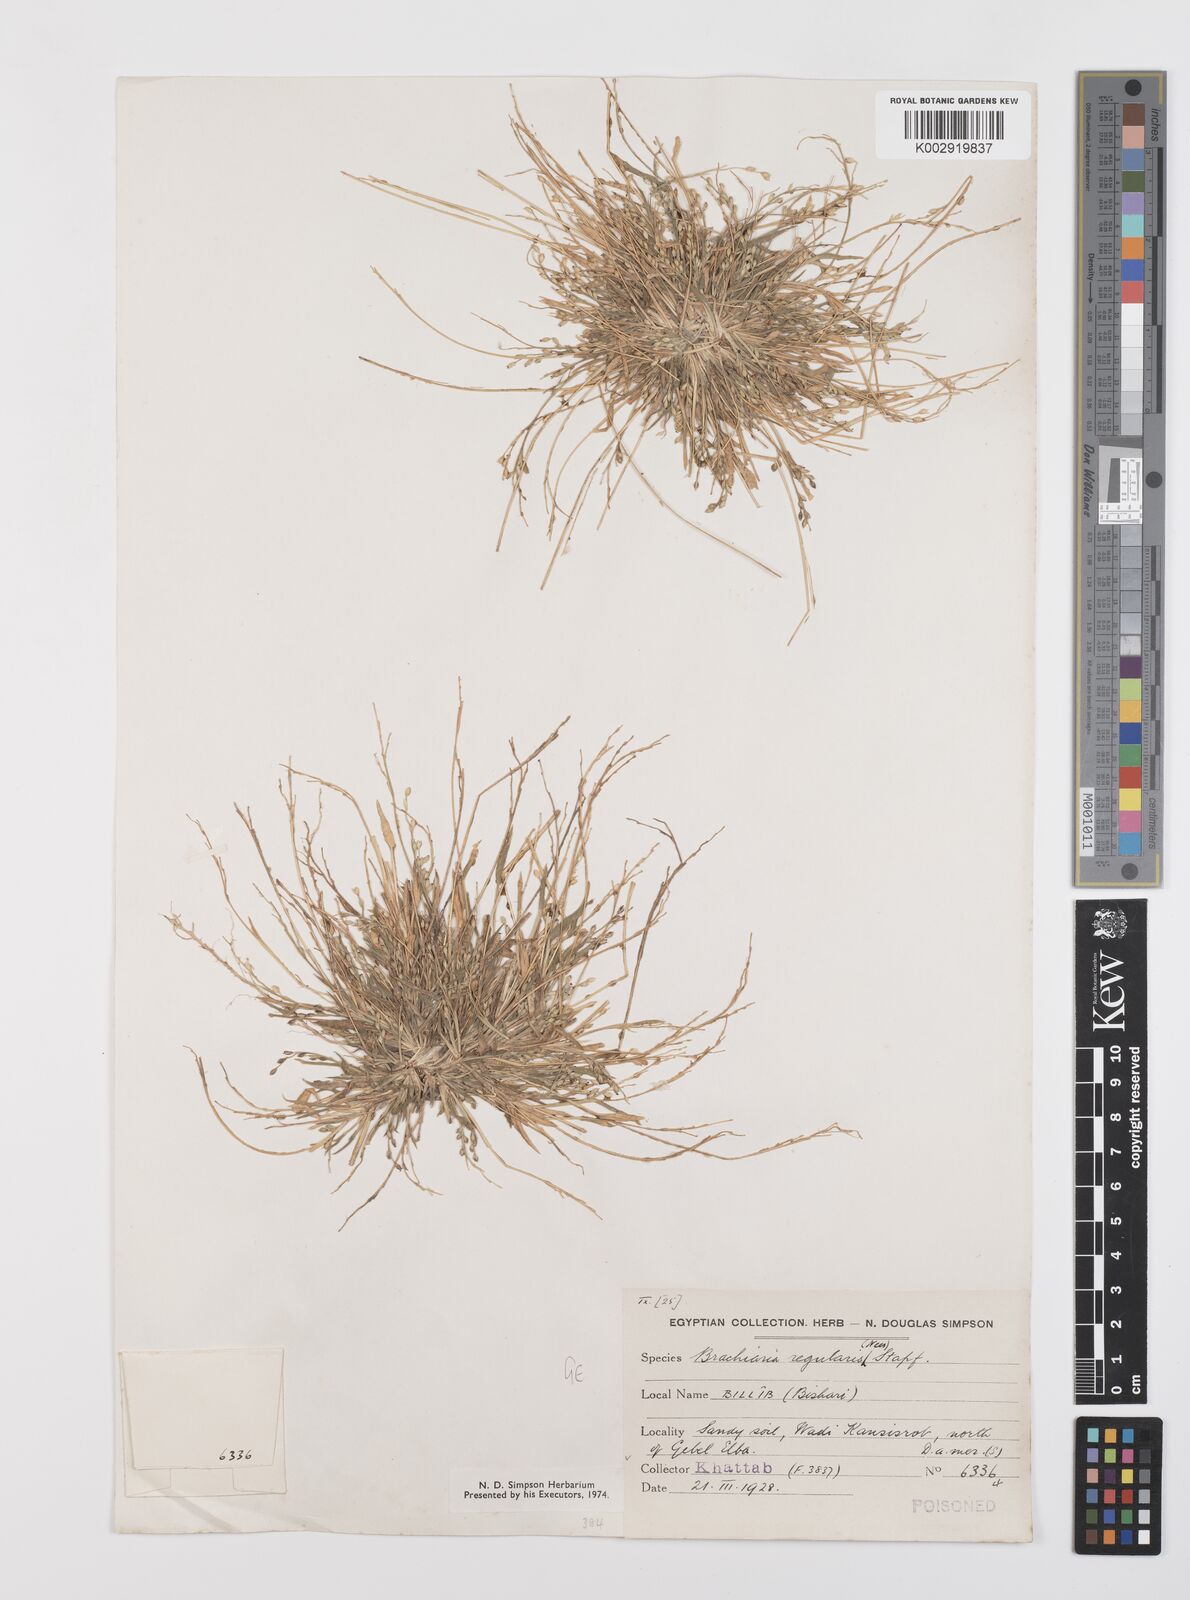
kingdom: Plantae
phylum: Tracheophyta
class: Liliopsida
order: Poales
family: Poaceae
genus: Urochloa
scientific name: Urochloa ramosa
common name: Browntop millet
